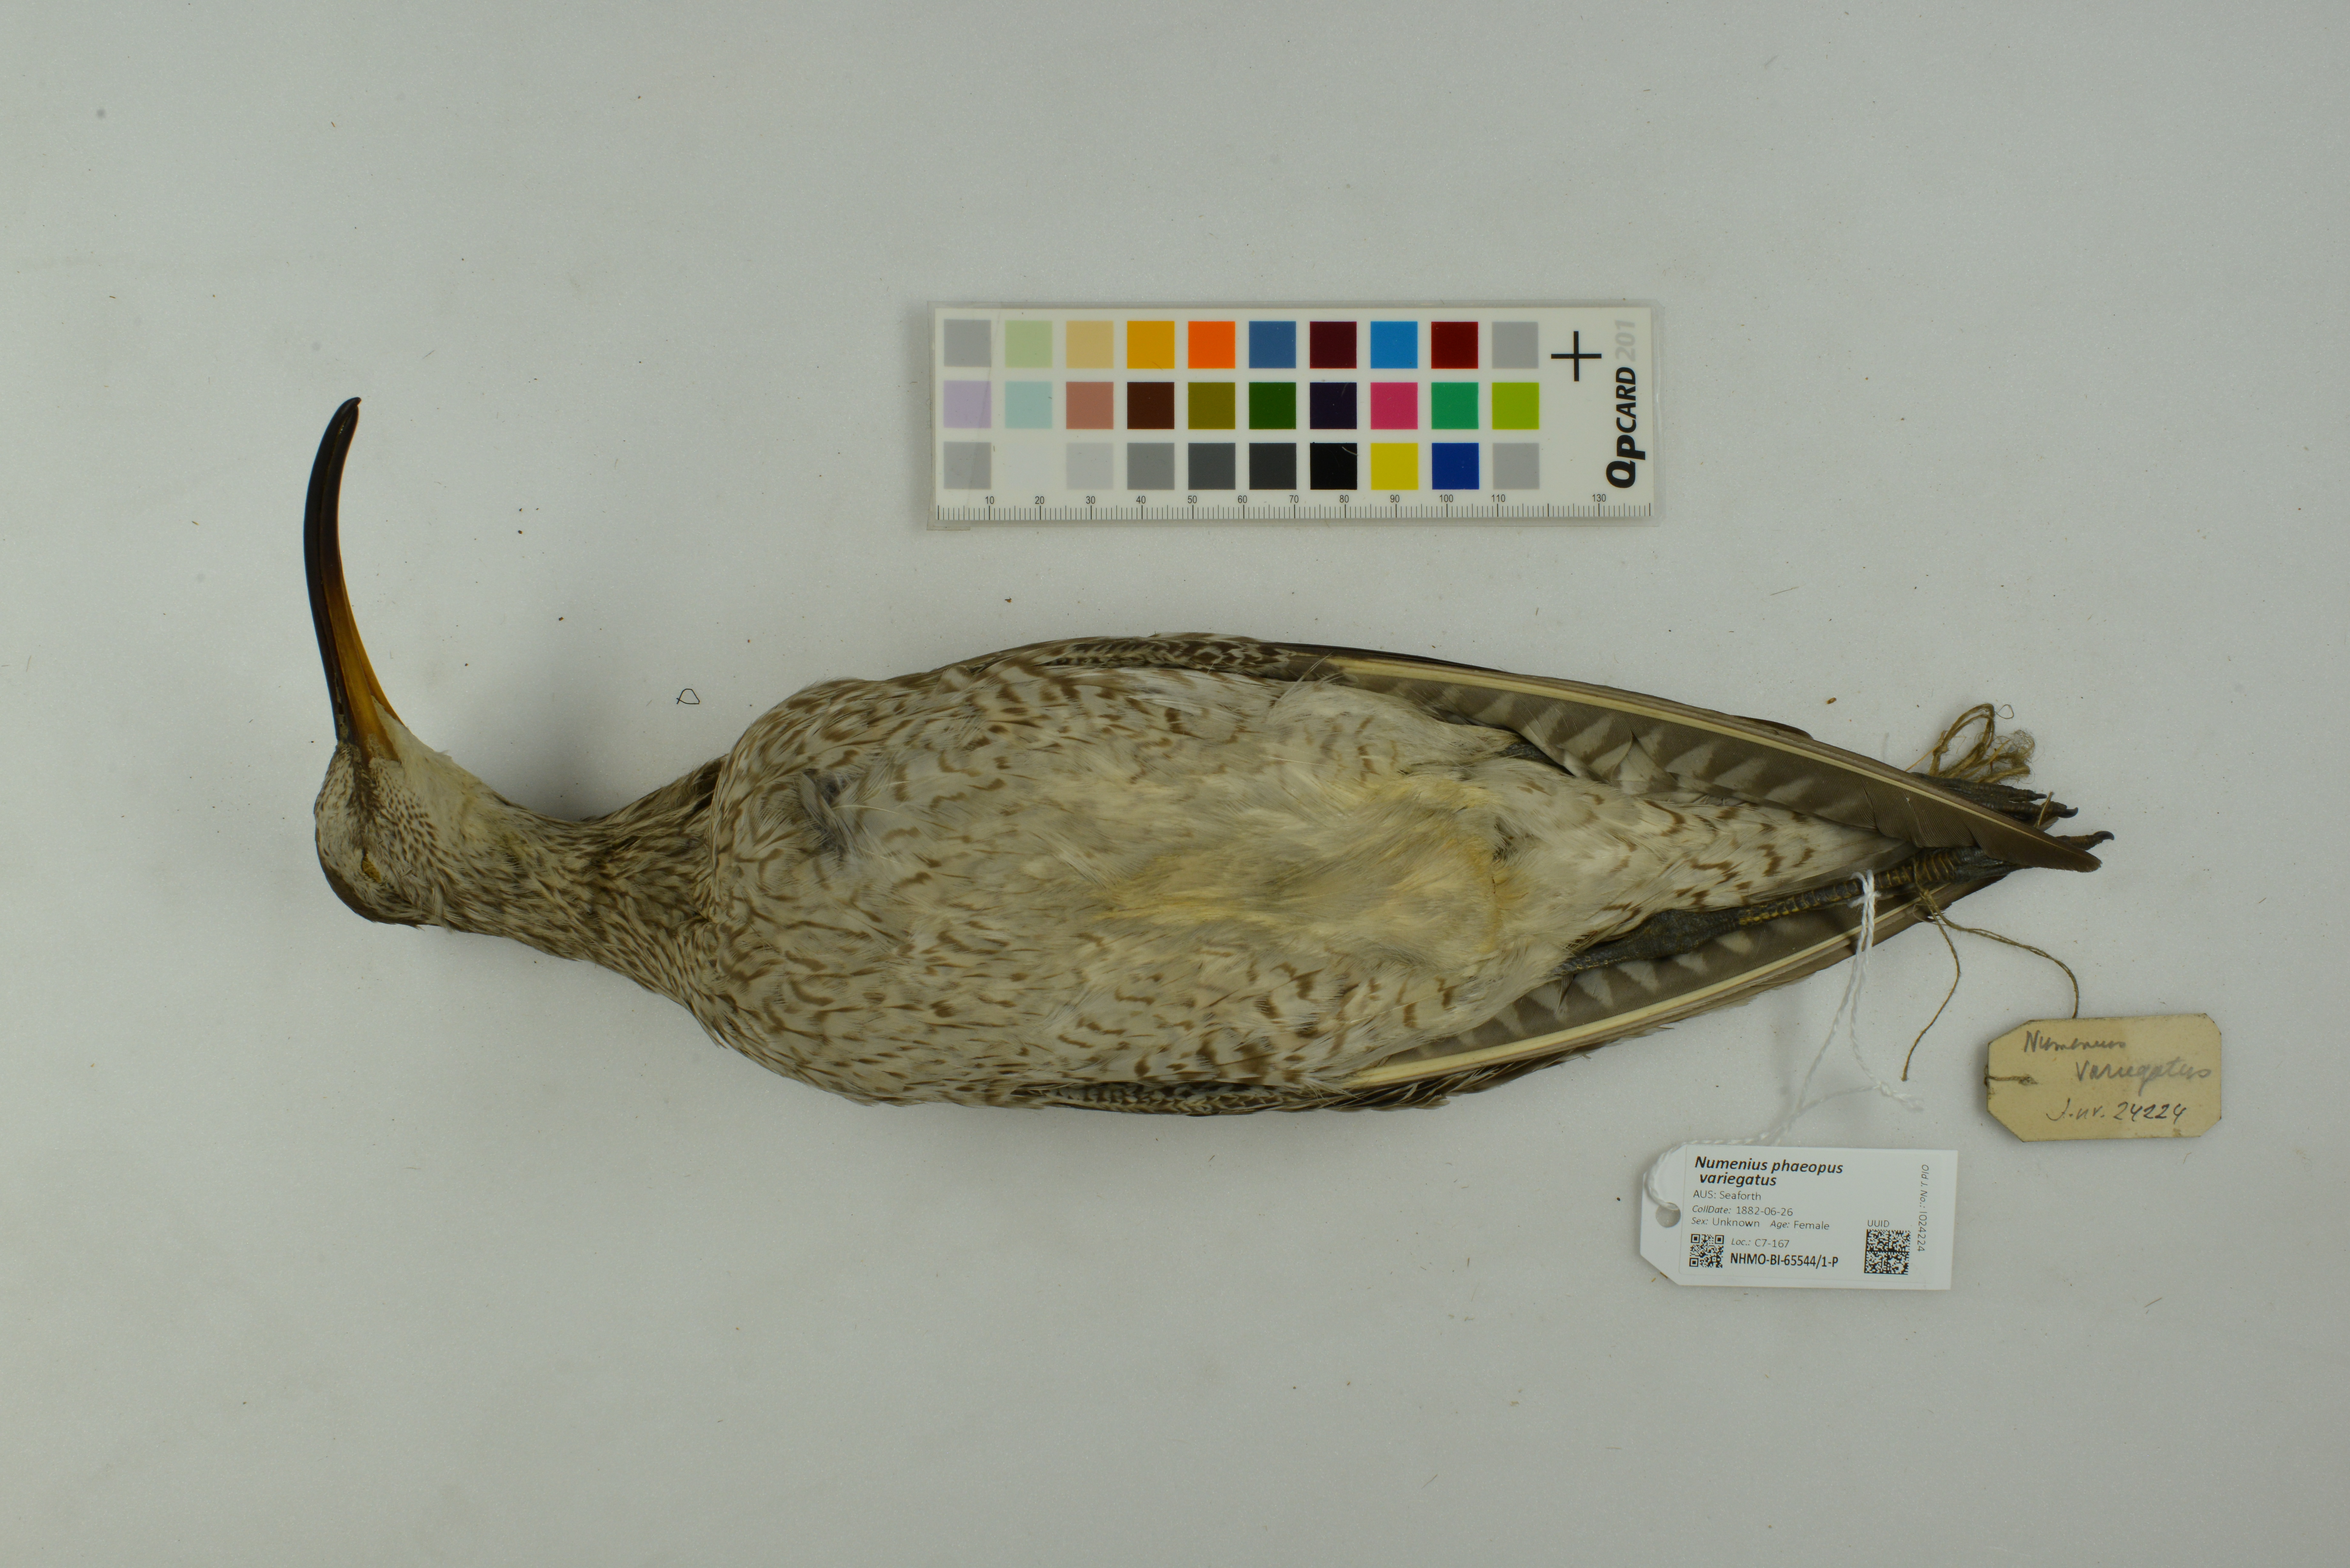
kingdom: Animalia
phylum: Chordata
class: Aves
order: Charadriiformes
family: Scolopacidae
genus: Numenius
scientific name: Numenius phaeopus
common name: Whimbrel
